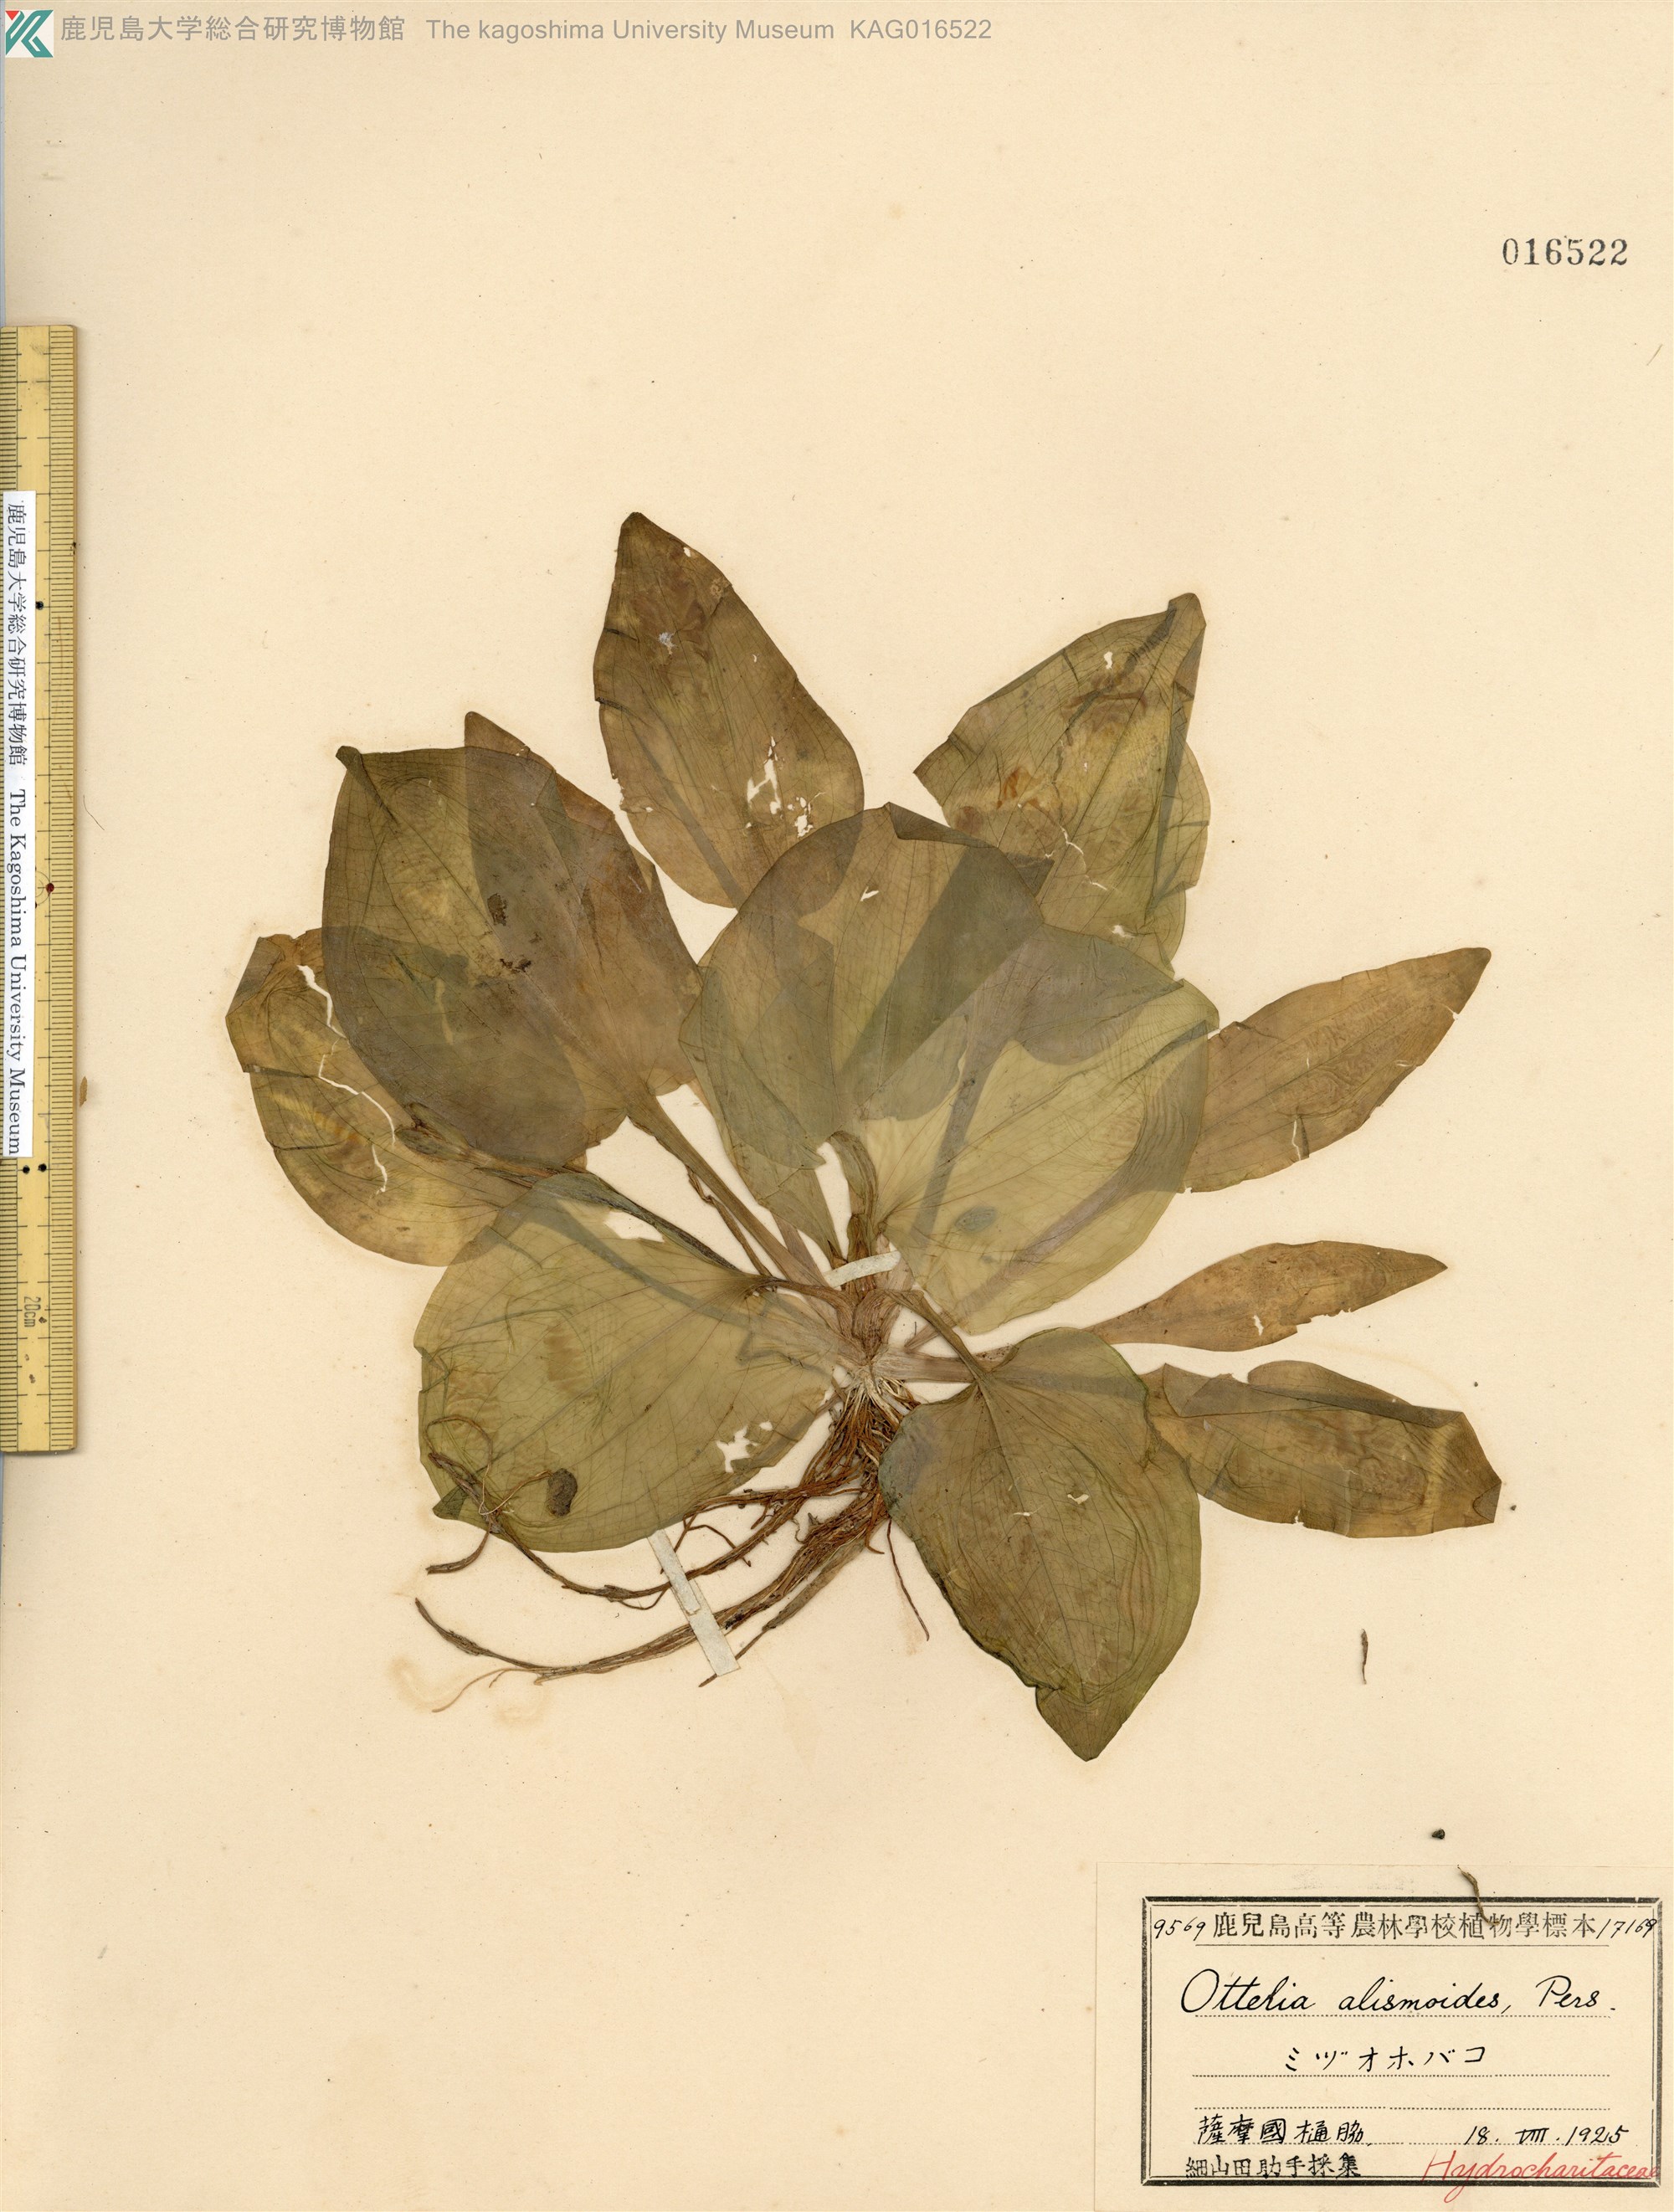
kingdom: Plantae
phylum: Tracheophyta
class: Liliopsida
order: Alismatales
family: Hydrocharitaceae
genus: Ottelia
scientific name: Ottelia alismoides
